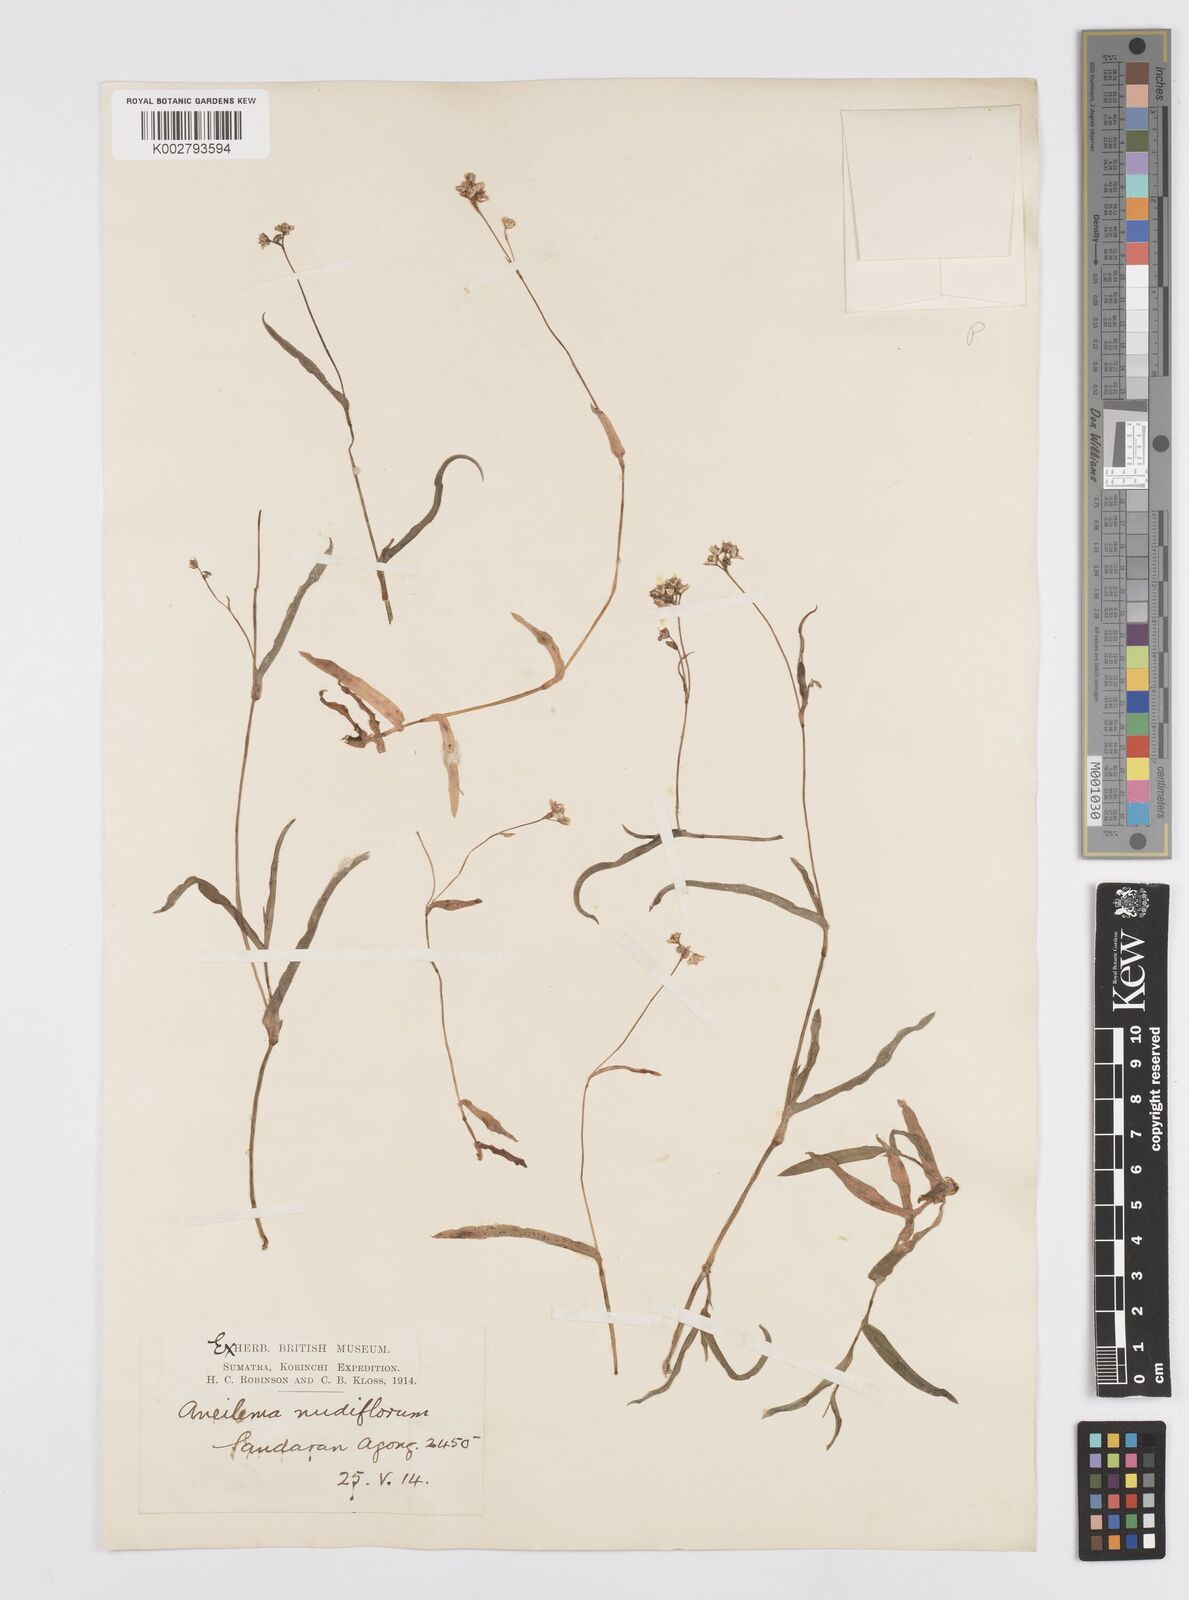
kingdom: Plantae
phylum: Tracheophyta
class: Liliopsida
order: Commelinales
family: Commelinaceae
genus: Murdannia
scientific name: Murdannia nudiflora
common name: Nakedstem dewflower
